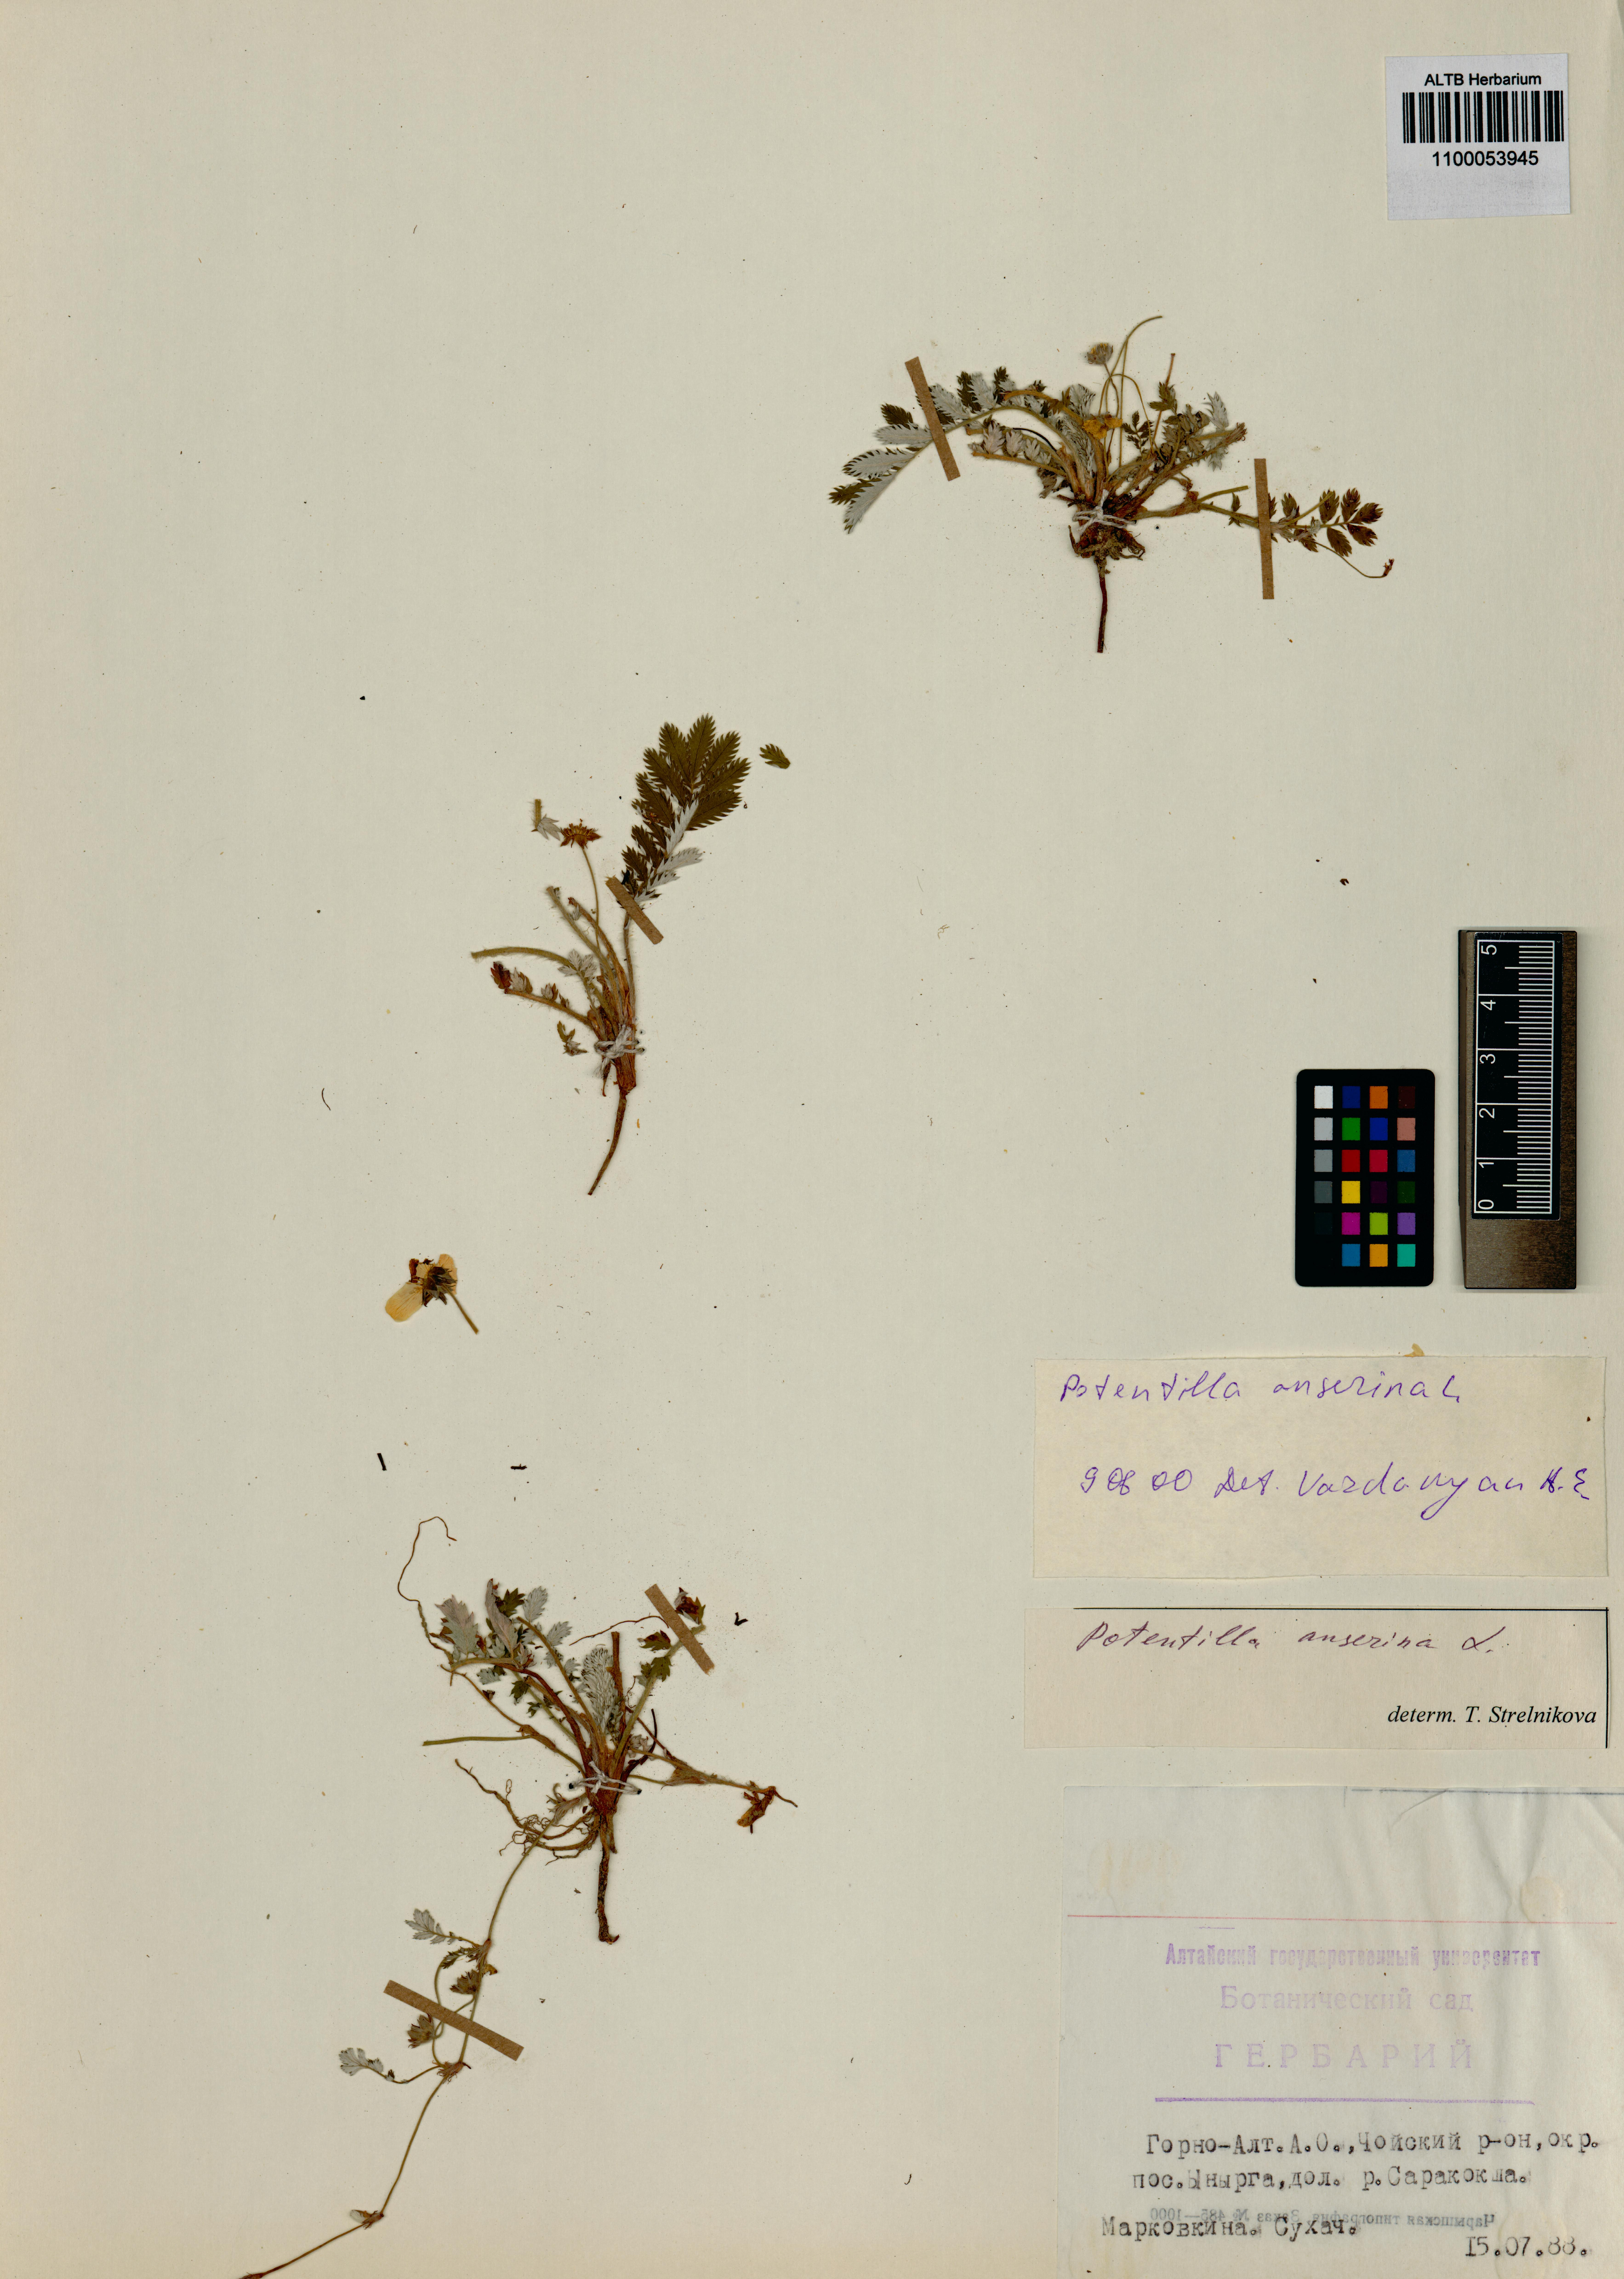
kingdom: Plantae
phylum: Tracheophyta
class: Magnoliopsida
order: Rosales
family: Rosaceae
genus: Argentina
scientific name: Argentina anserina
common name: Common silverweed
